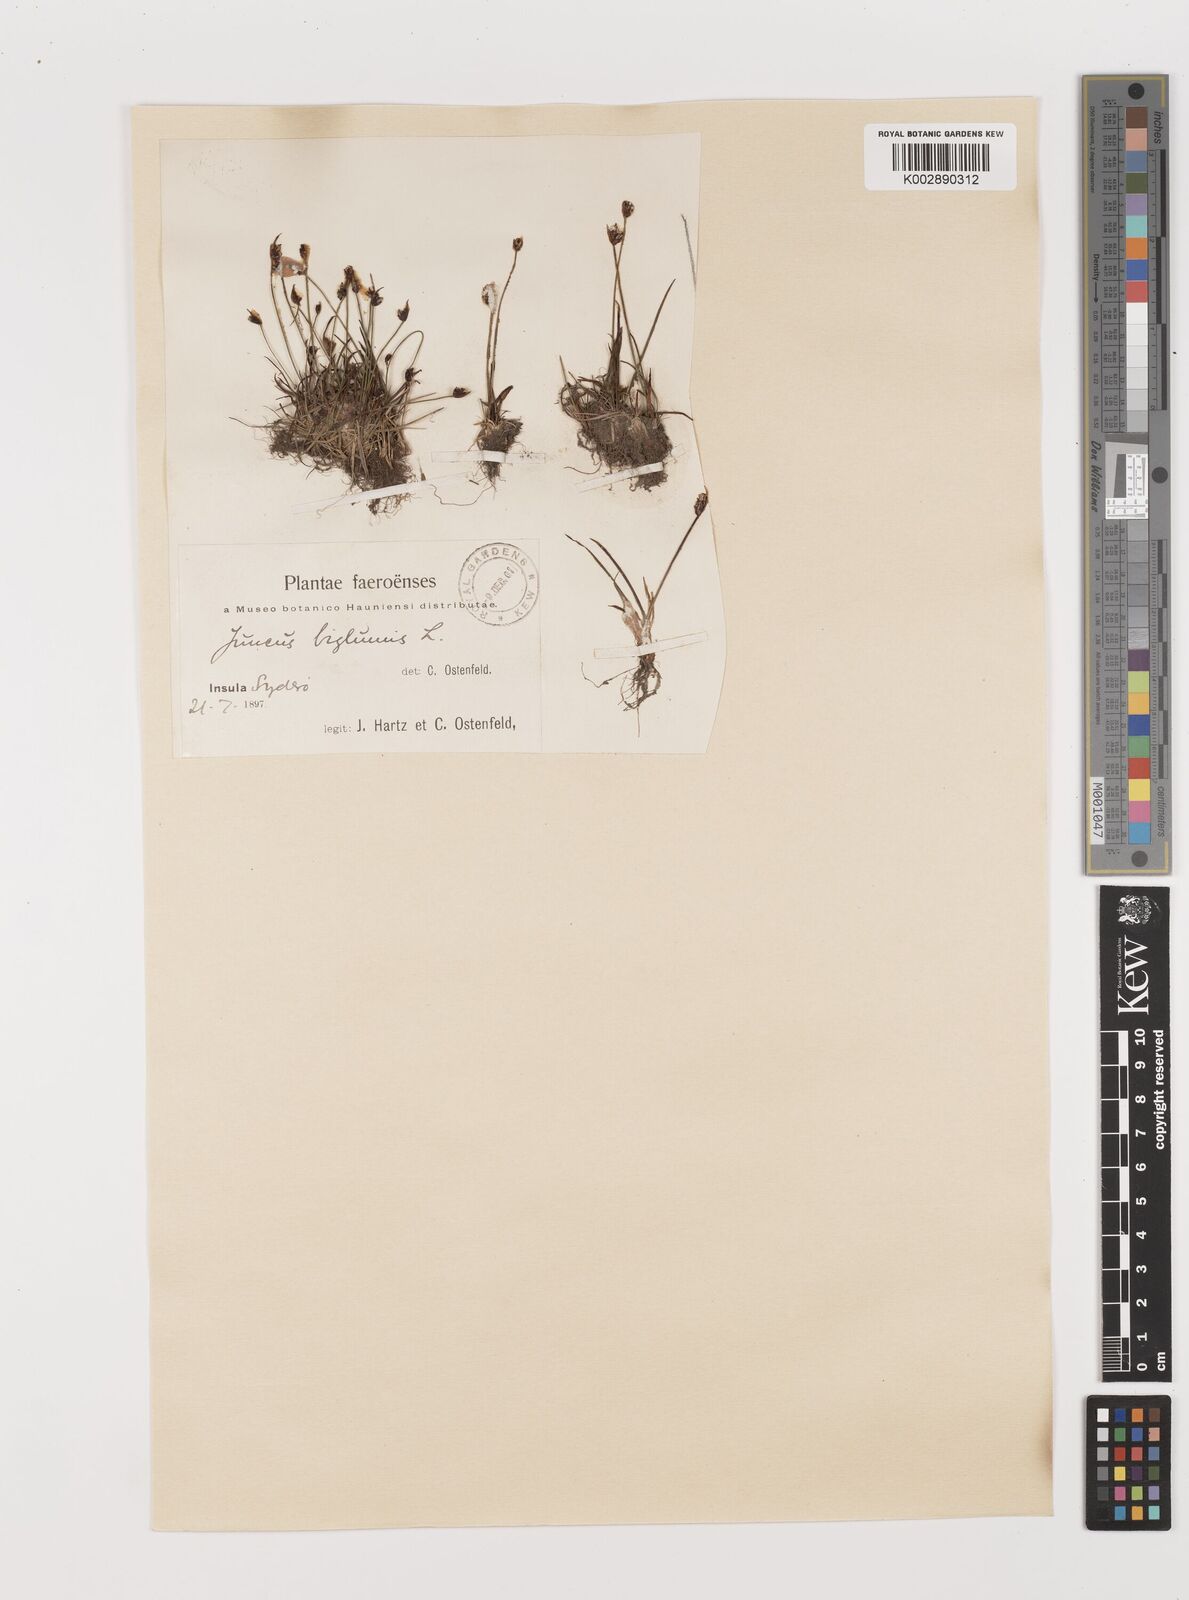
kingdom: Plantae
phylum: Tracheophyta
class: Liliopsida
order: Poales
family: Juncaceae
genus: Juncus
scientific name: Juncus biglumis
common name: Two-flowered rush
